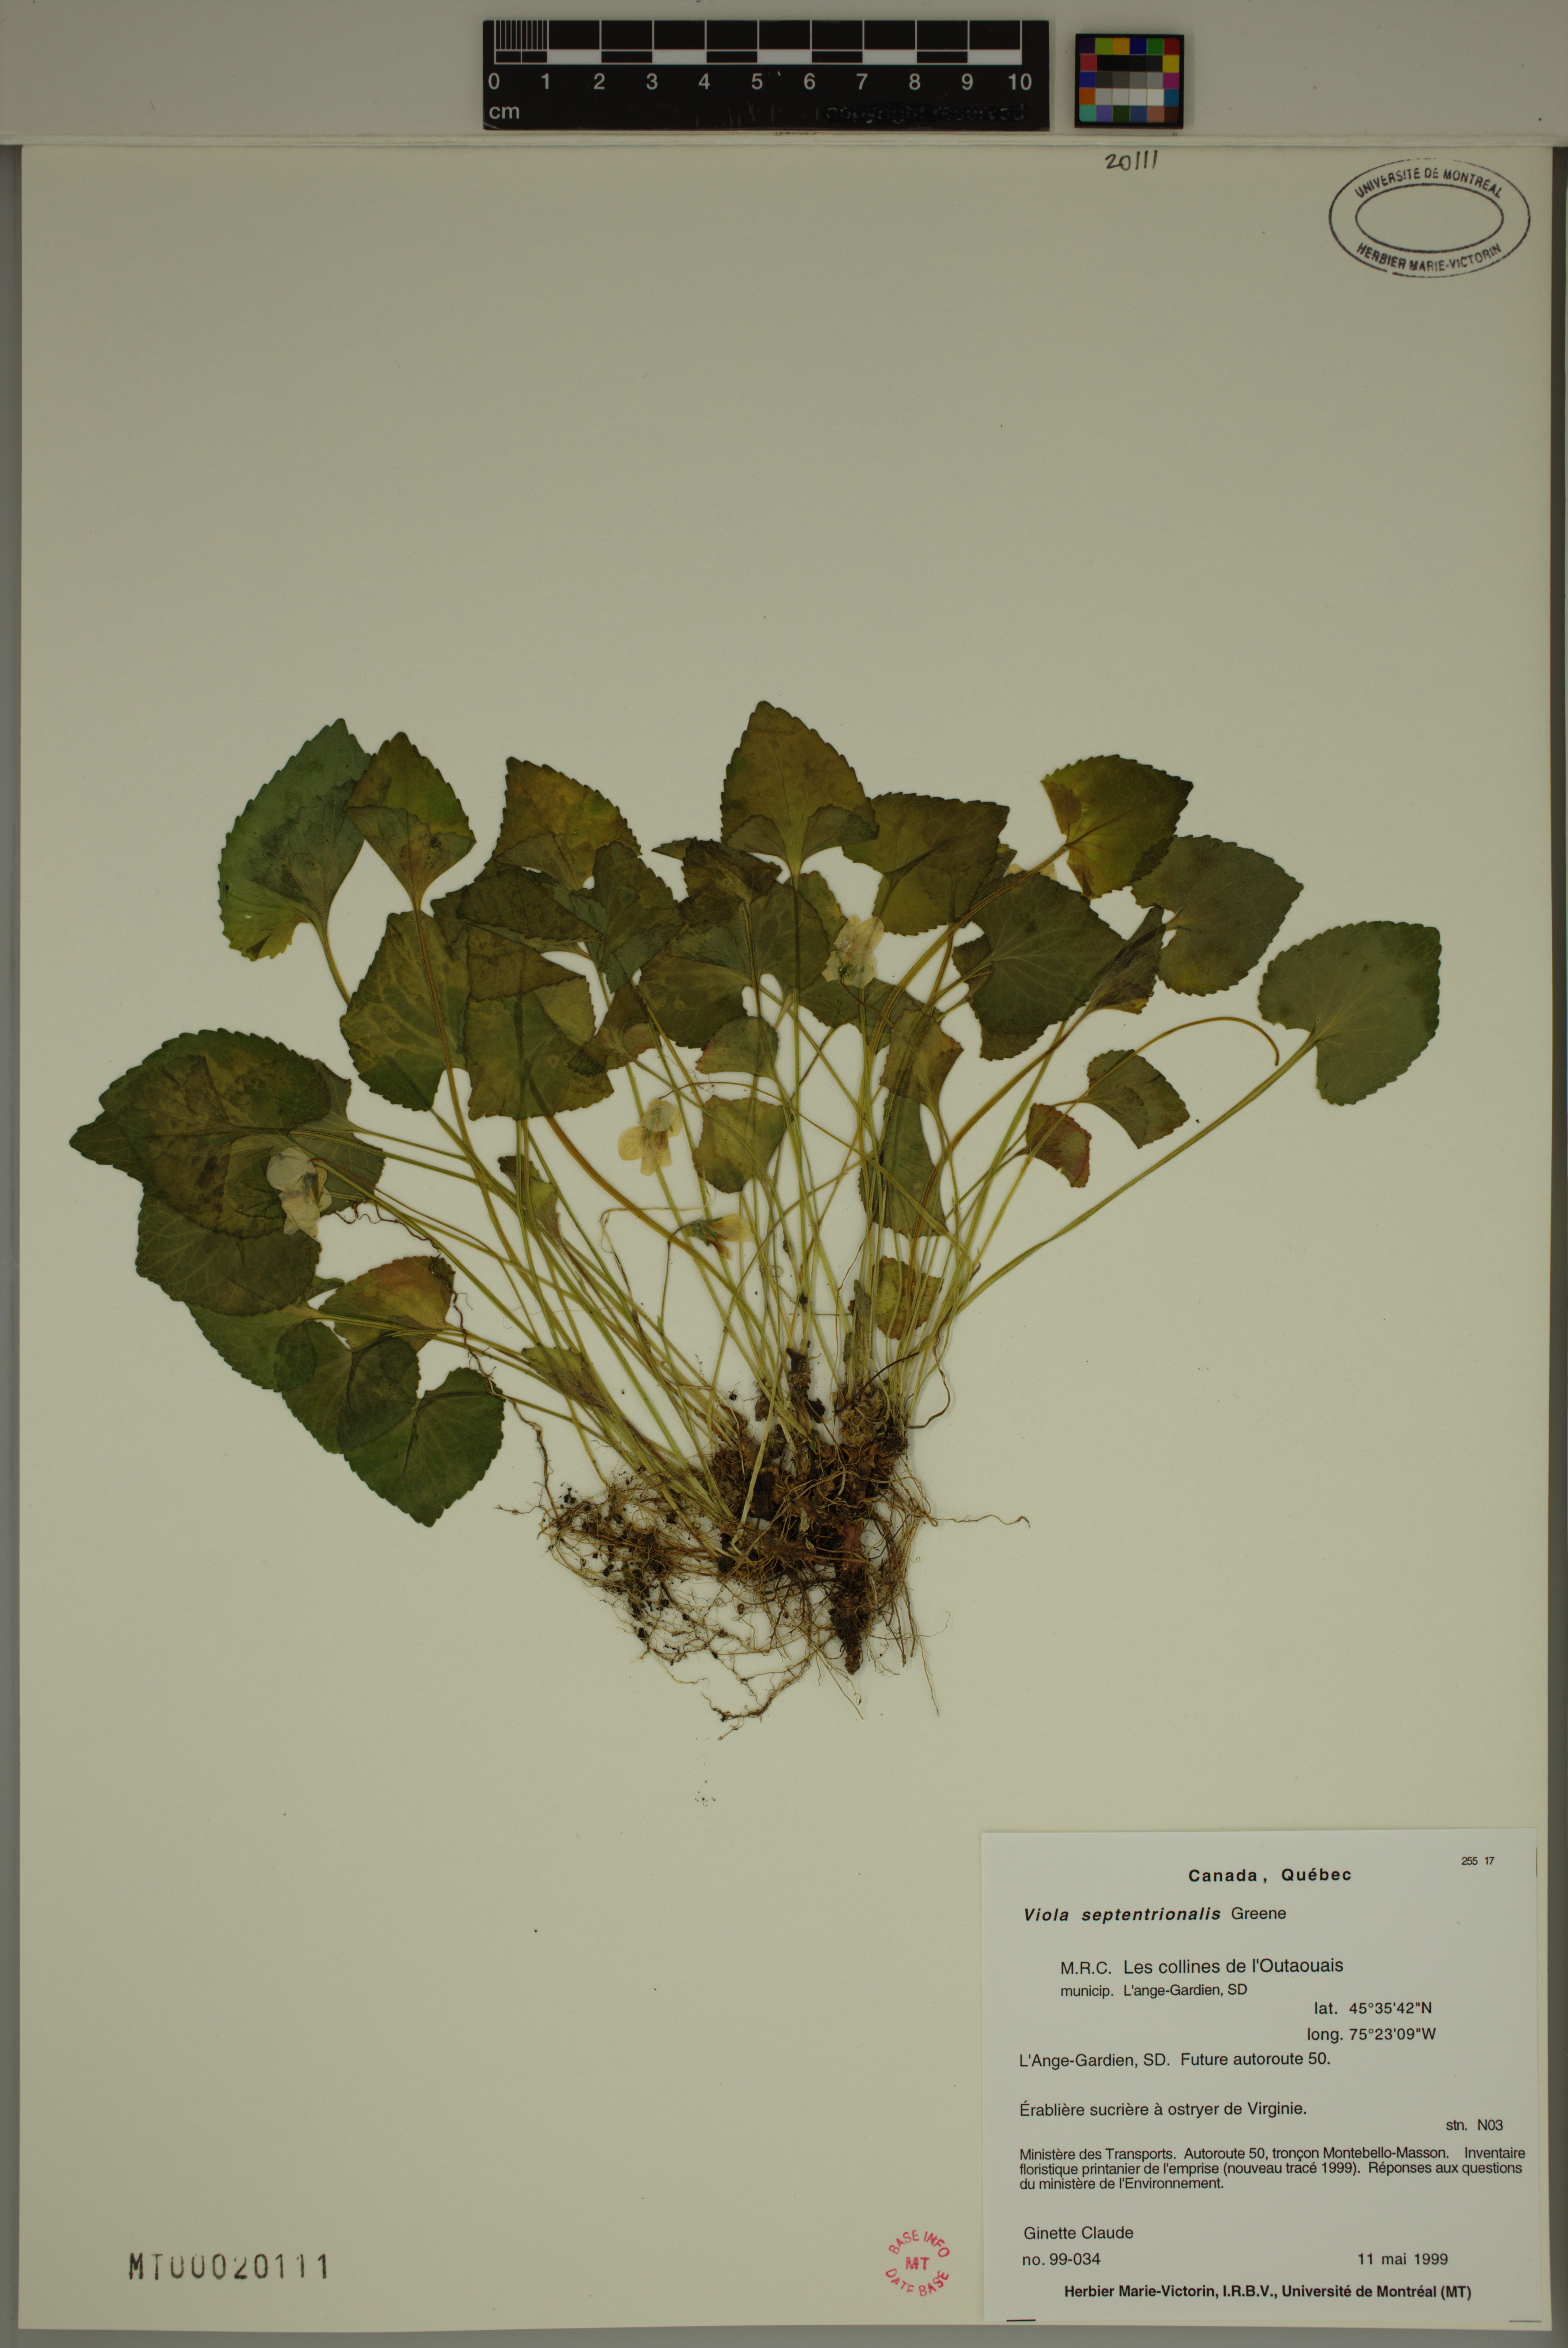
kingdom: Plantae
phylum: Tracheophyta
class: Magnoliopsida
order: Malpighiales
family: Violaceae
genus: Viola
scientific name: Viola sororia
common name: Dooryard violet
